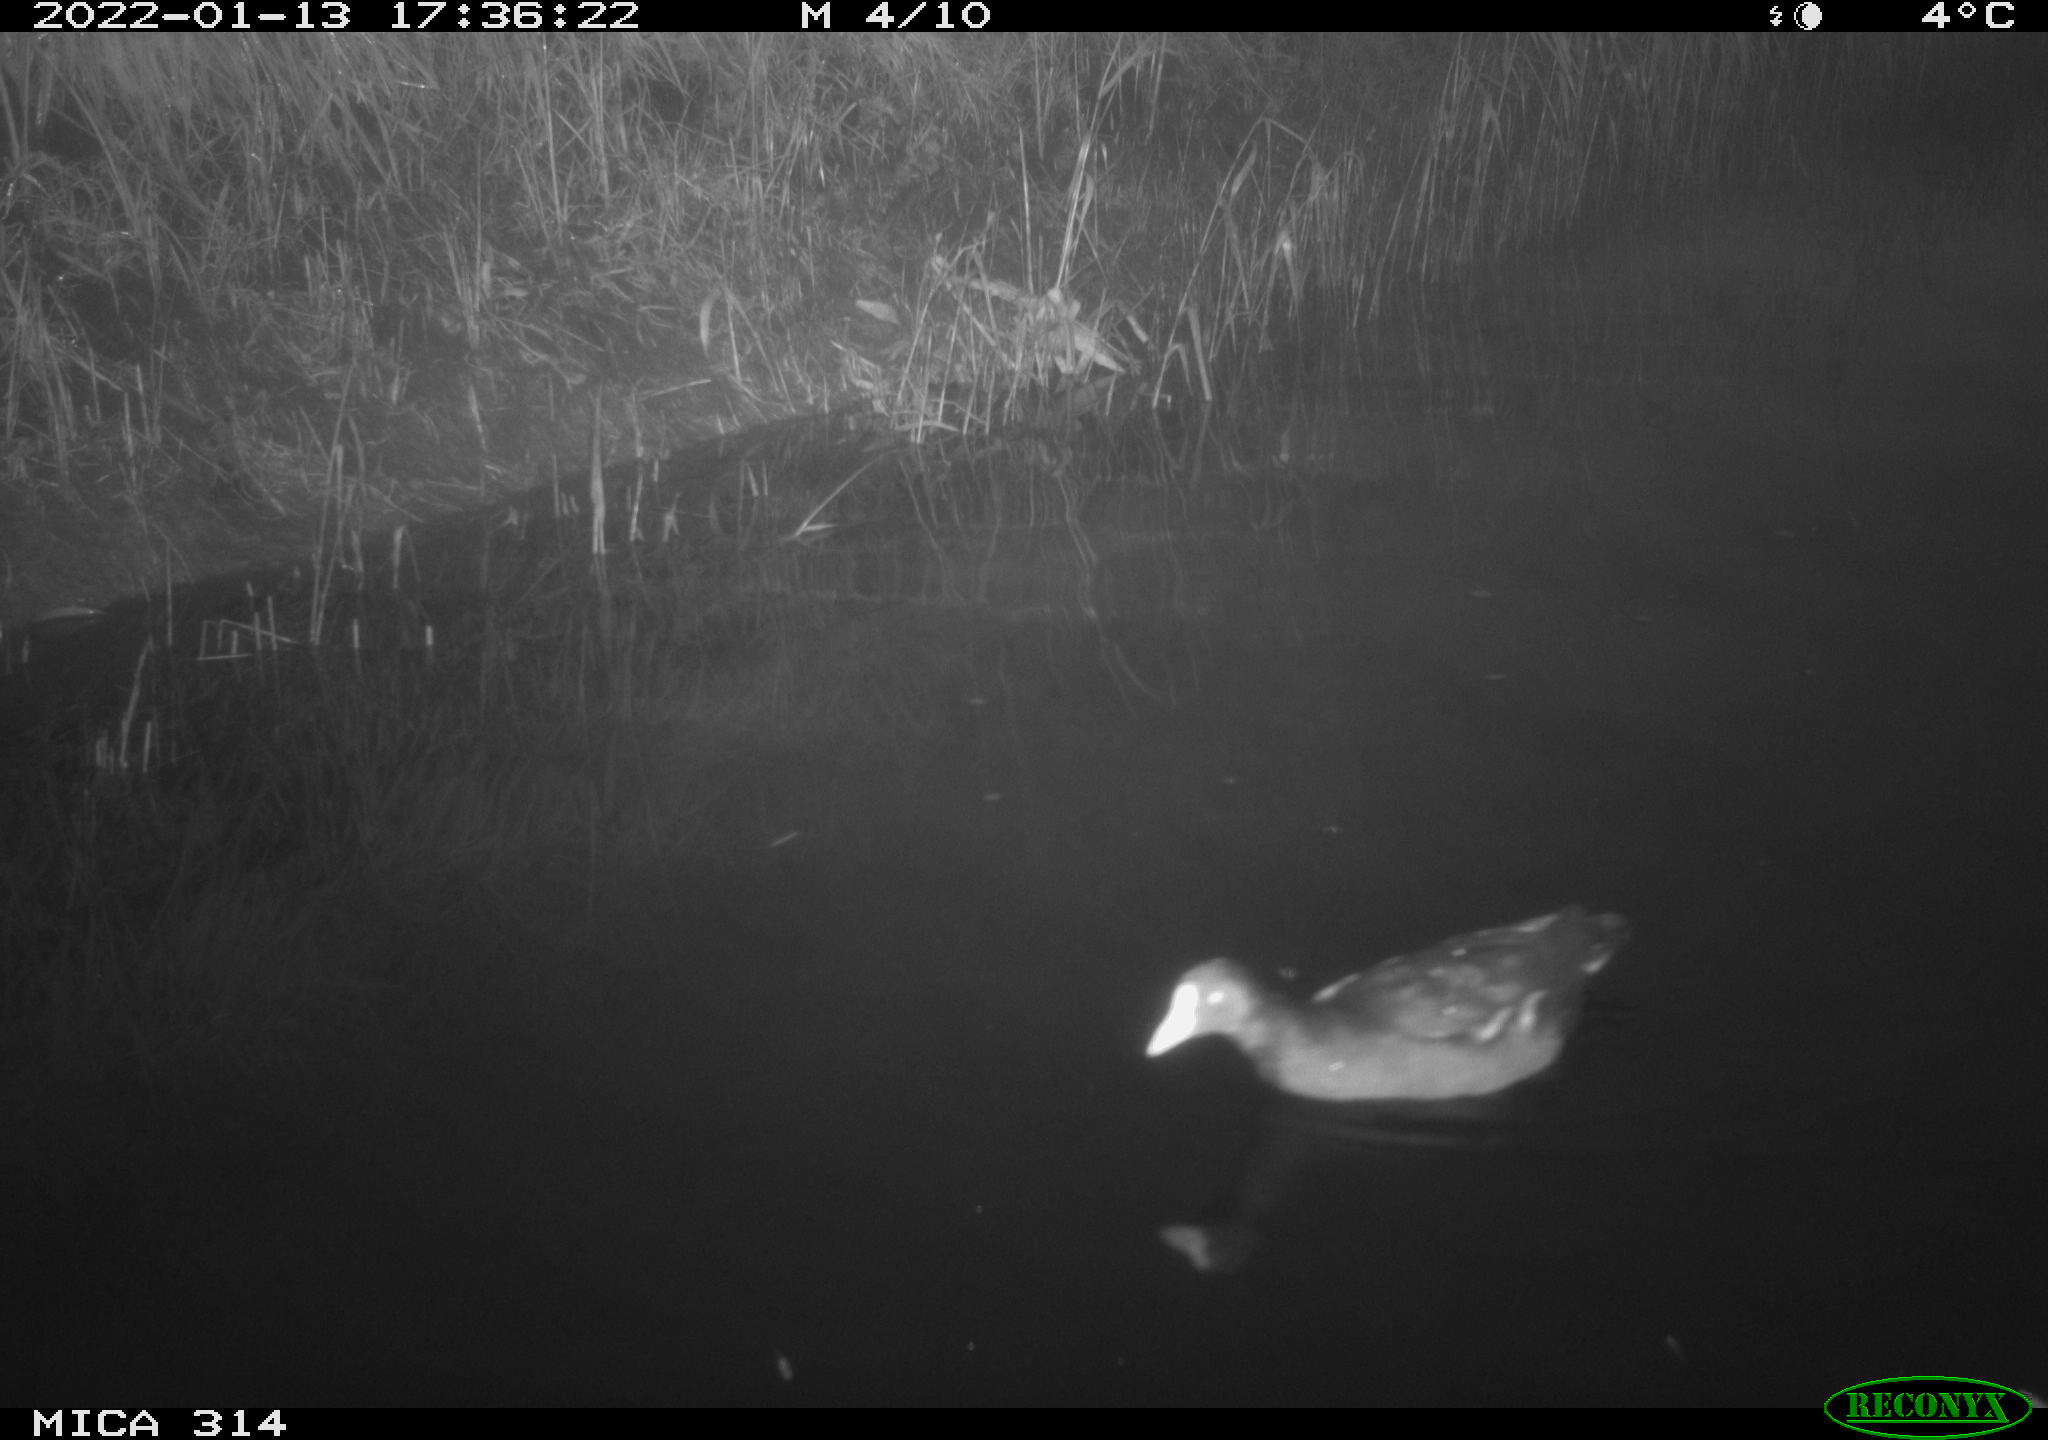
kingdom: Animalia
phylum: Chordata
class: Aves
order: Anseriformes
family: Anatidae
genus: Anas
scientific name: Anas
